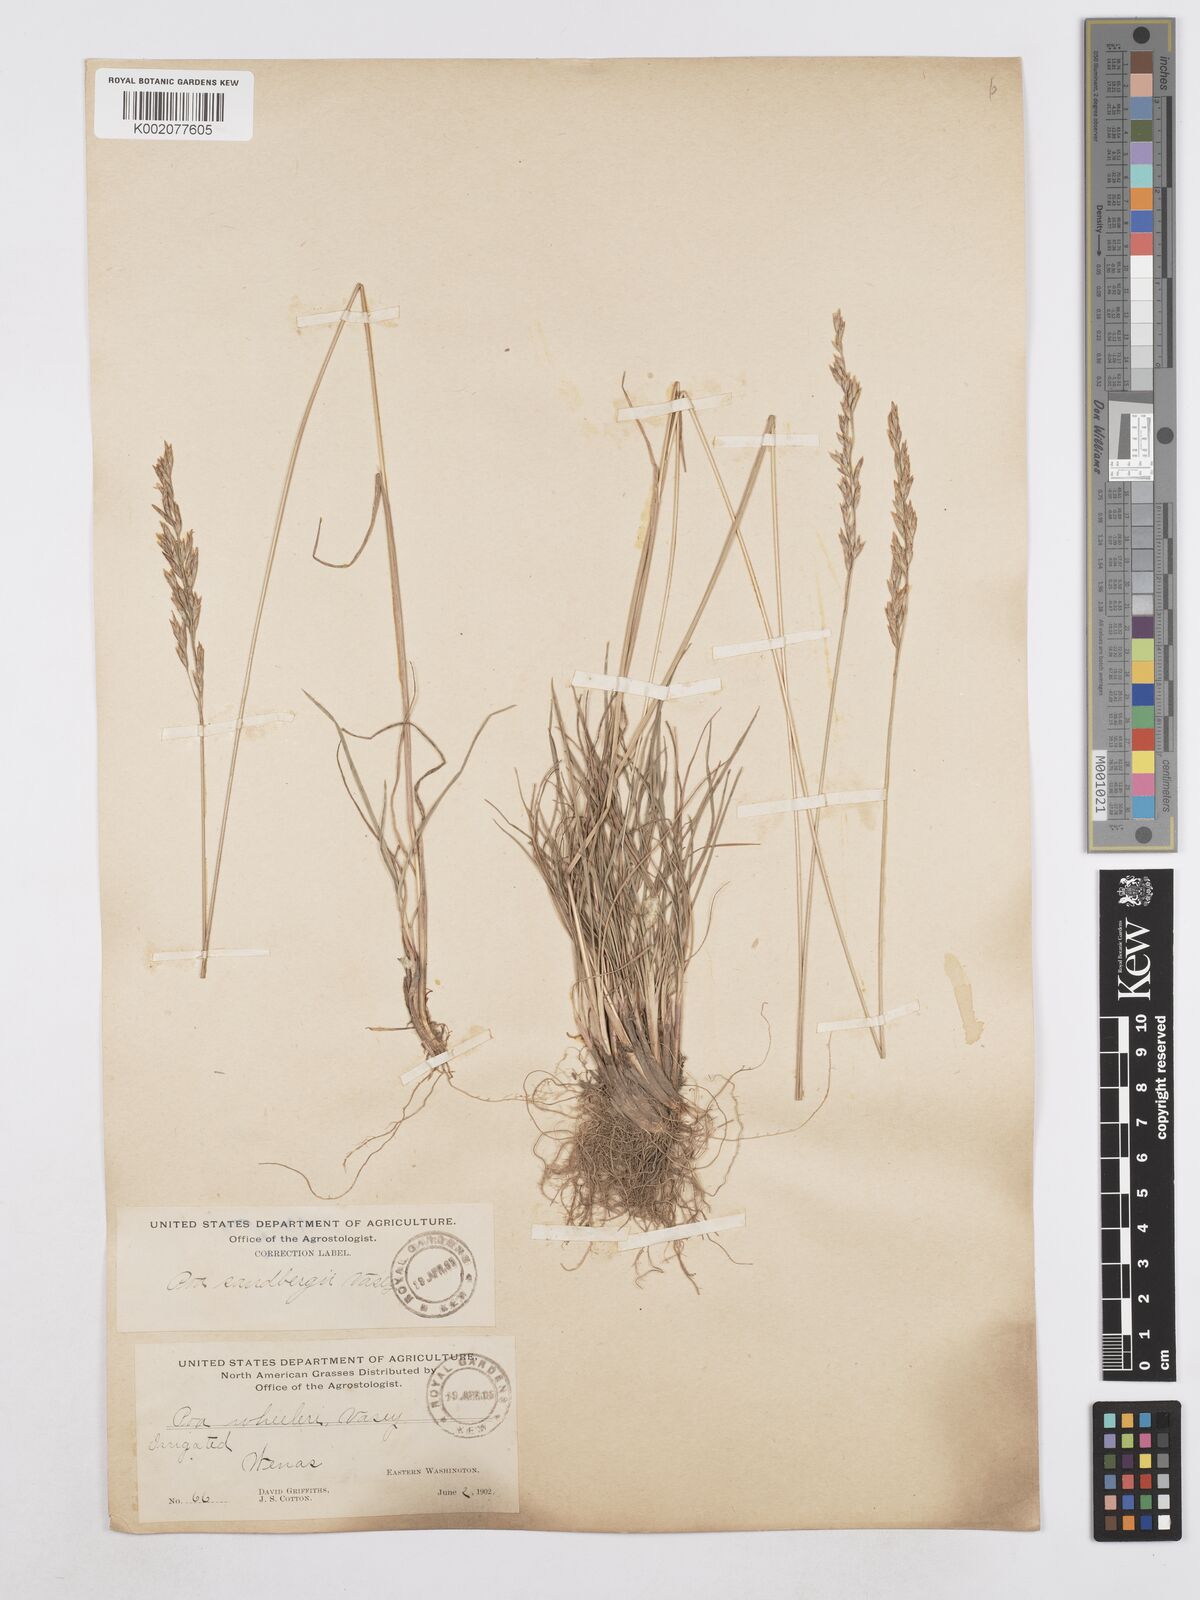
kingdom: Plantae
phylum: Tracheophyta
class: Liliopsida
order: Poales
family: Poaceae
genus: Poa
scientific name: Poa secunda
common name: Sandberg bluegrass
